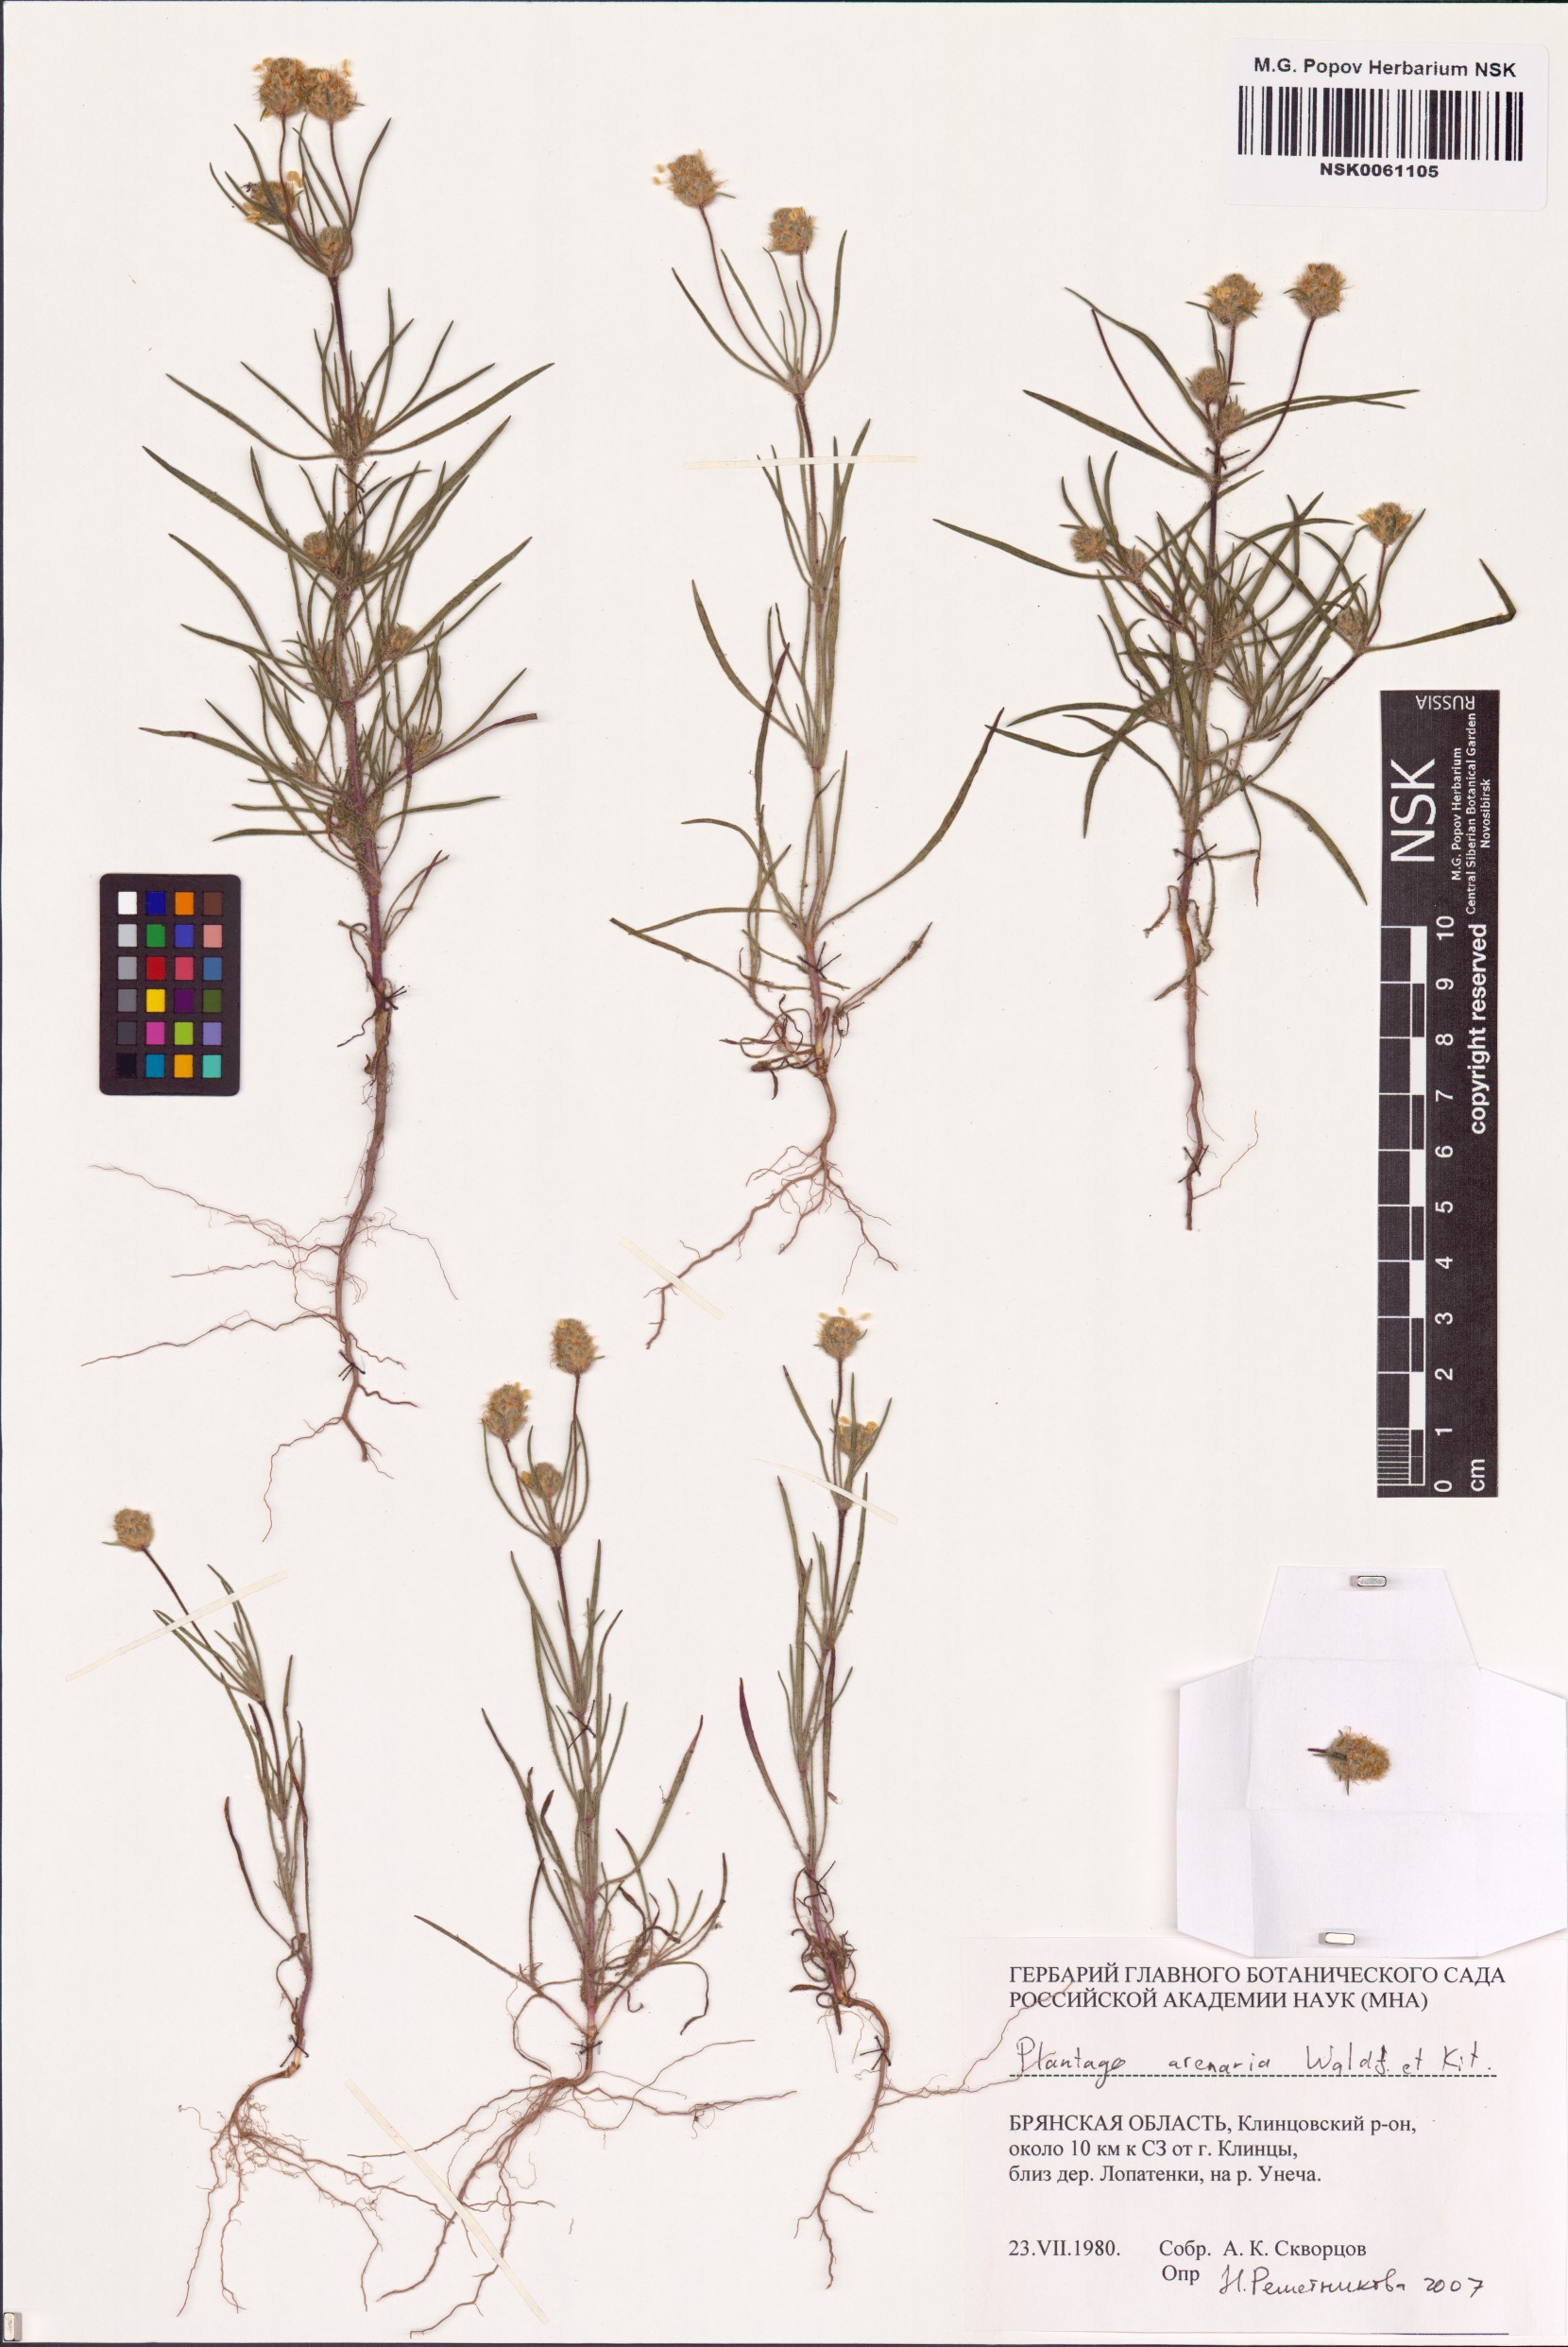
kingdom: Plantae
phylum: Tracheophyta
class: Magnoliopsida
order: Lamiales
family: Plantaginaceae
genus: Plantago
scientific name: Plantago arenaria
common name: Branched plantain
